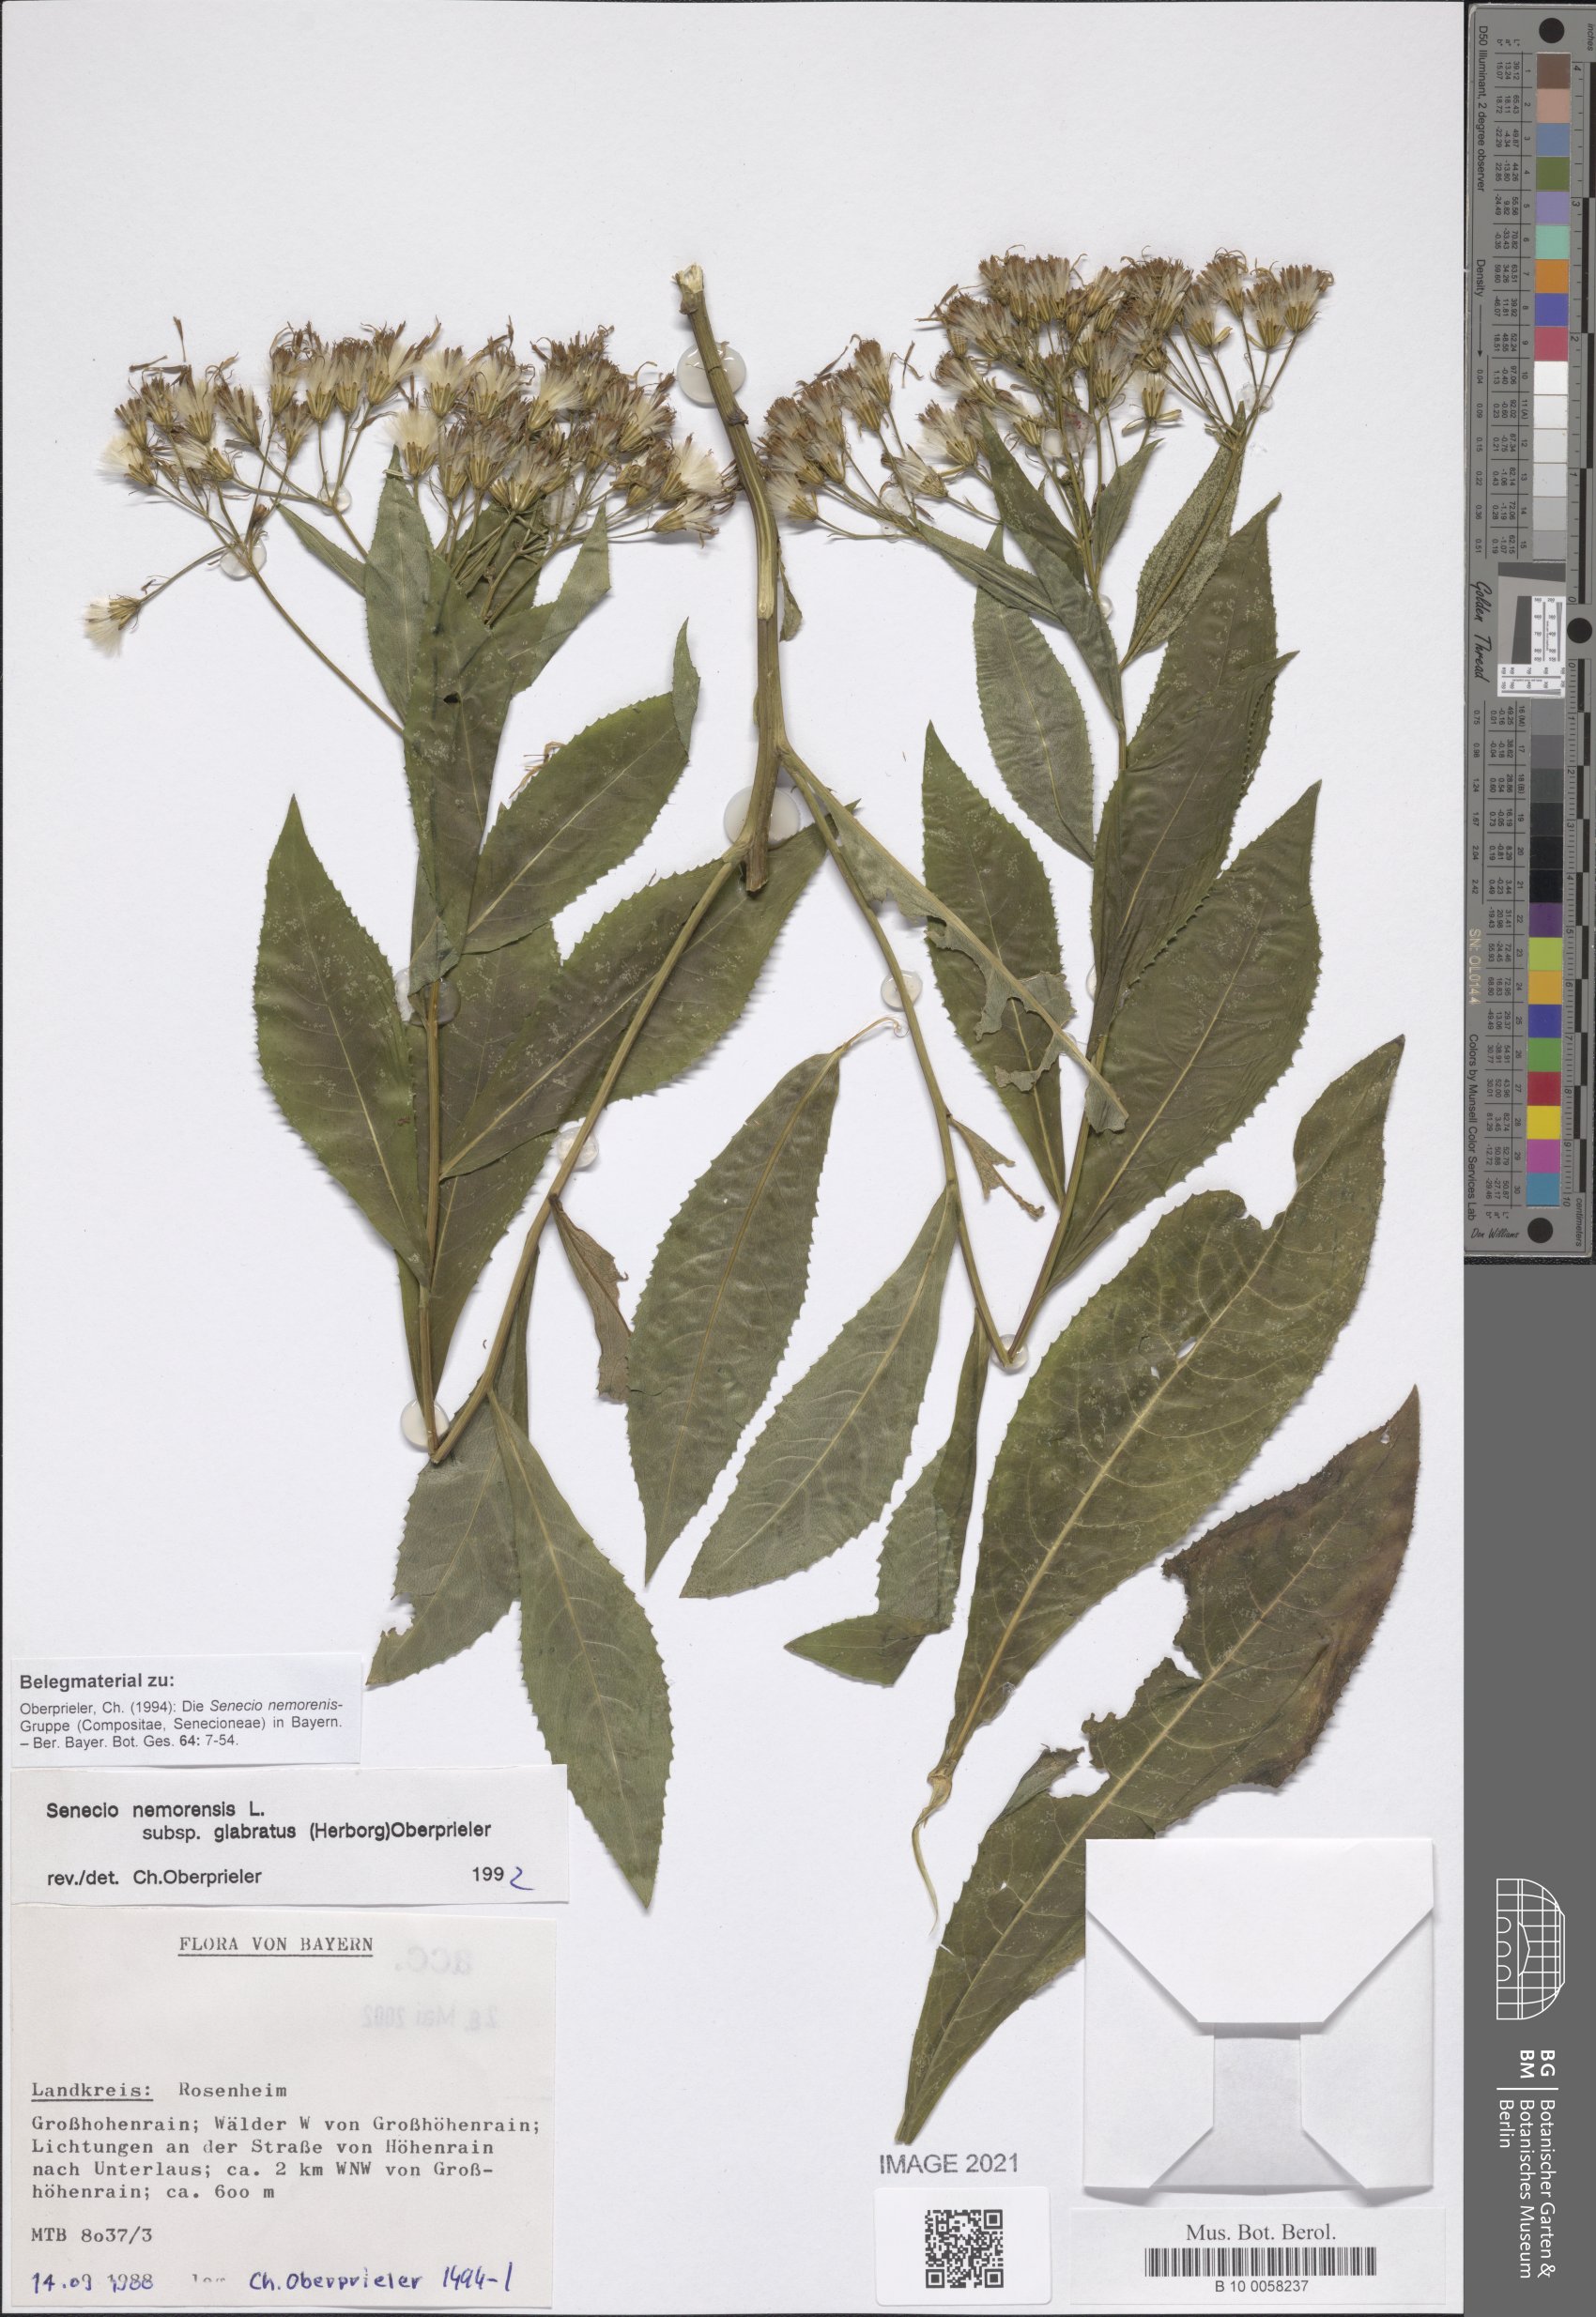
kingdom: Plantae
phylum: Tracheophyta
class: Magnoliopsida
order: Asterales
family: Asteraceae
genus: Senecio
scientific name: Senecio germanicus
